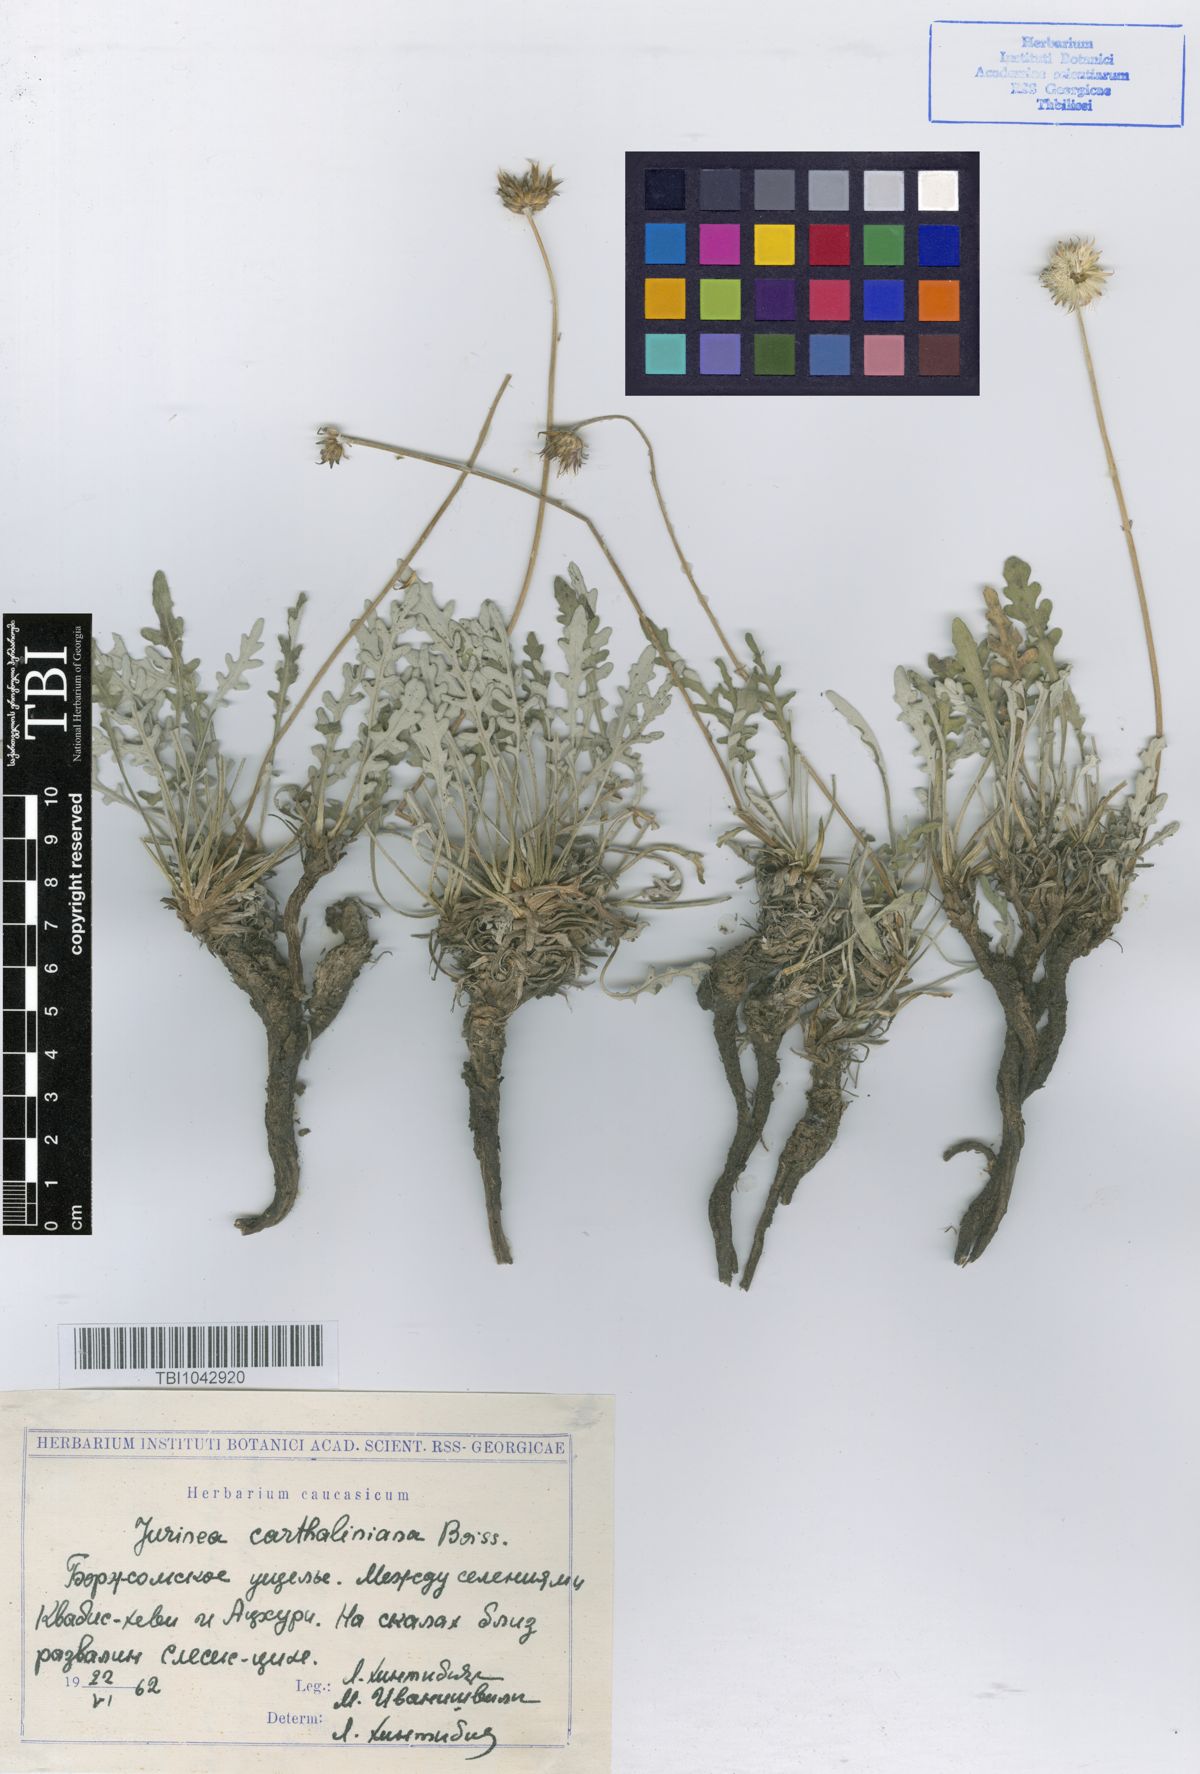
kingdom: Plantae
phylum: Tracheophyta
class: Magnoliopsida
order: Asterales
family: Asteraceae
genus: Jurinea
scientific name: Jurinea cartaliniana
